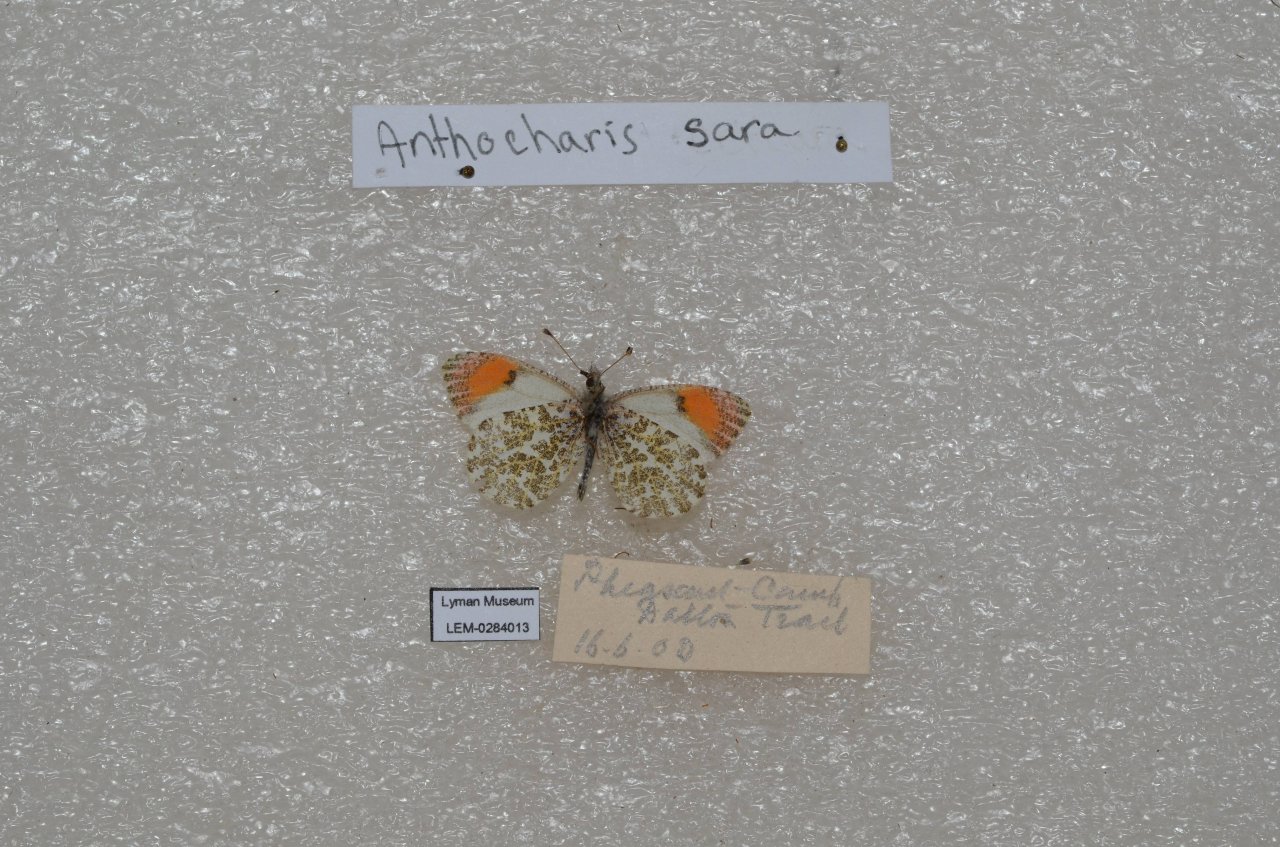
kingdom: Animalia
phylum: Arthropoda
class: Insecta
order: Lepidoptera
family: Pieridae
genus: Anthocharis
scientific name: Anthocharis sara
